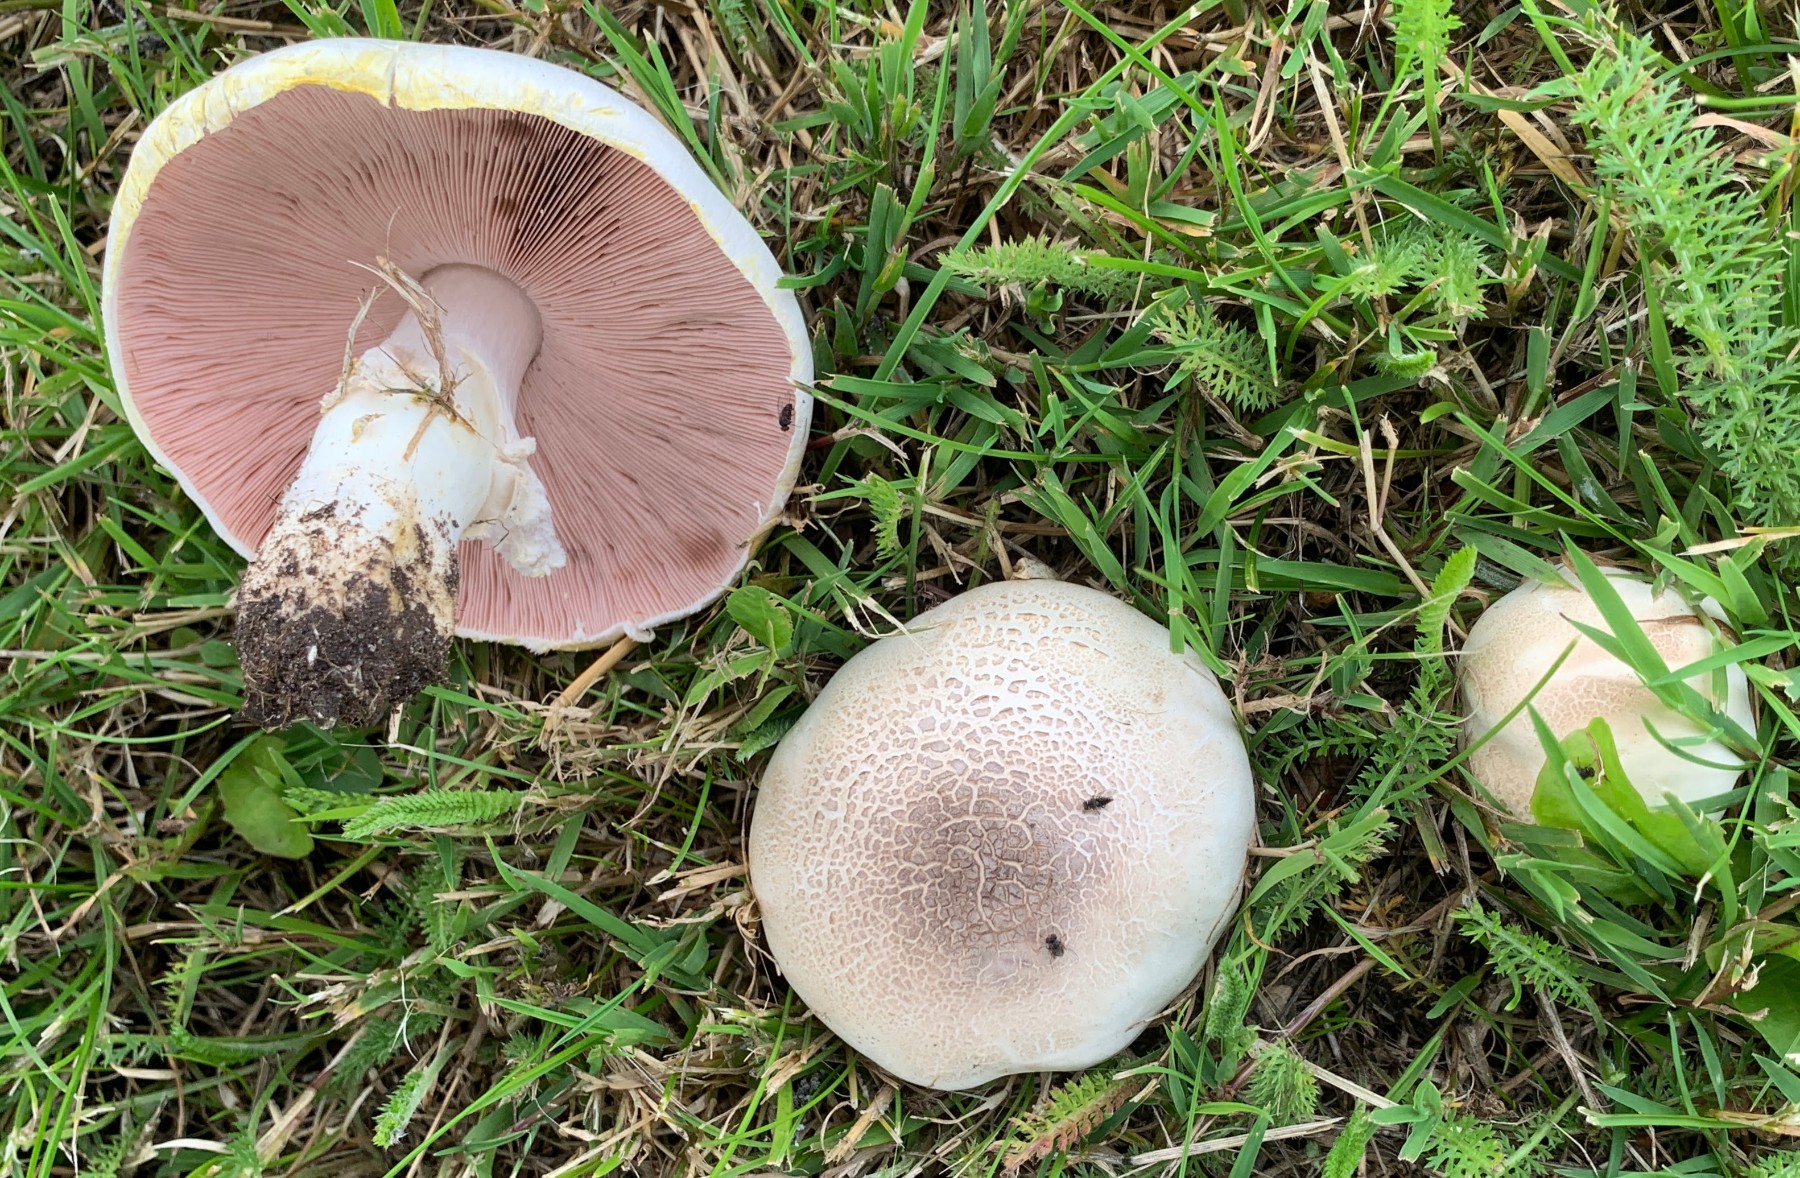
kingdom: Fungi
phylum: Basidiomycota
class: Agaricomycetes
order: Agaricales
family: Agaricaceae
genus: Agaricus
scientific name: Agaricus xanthodermus
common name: karbol-champignon
